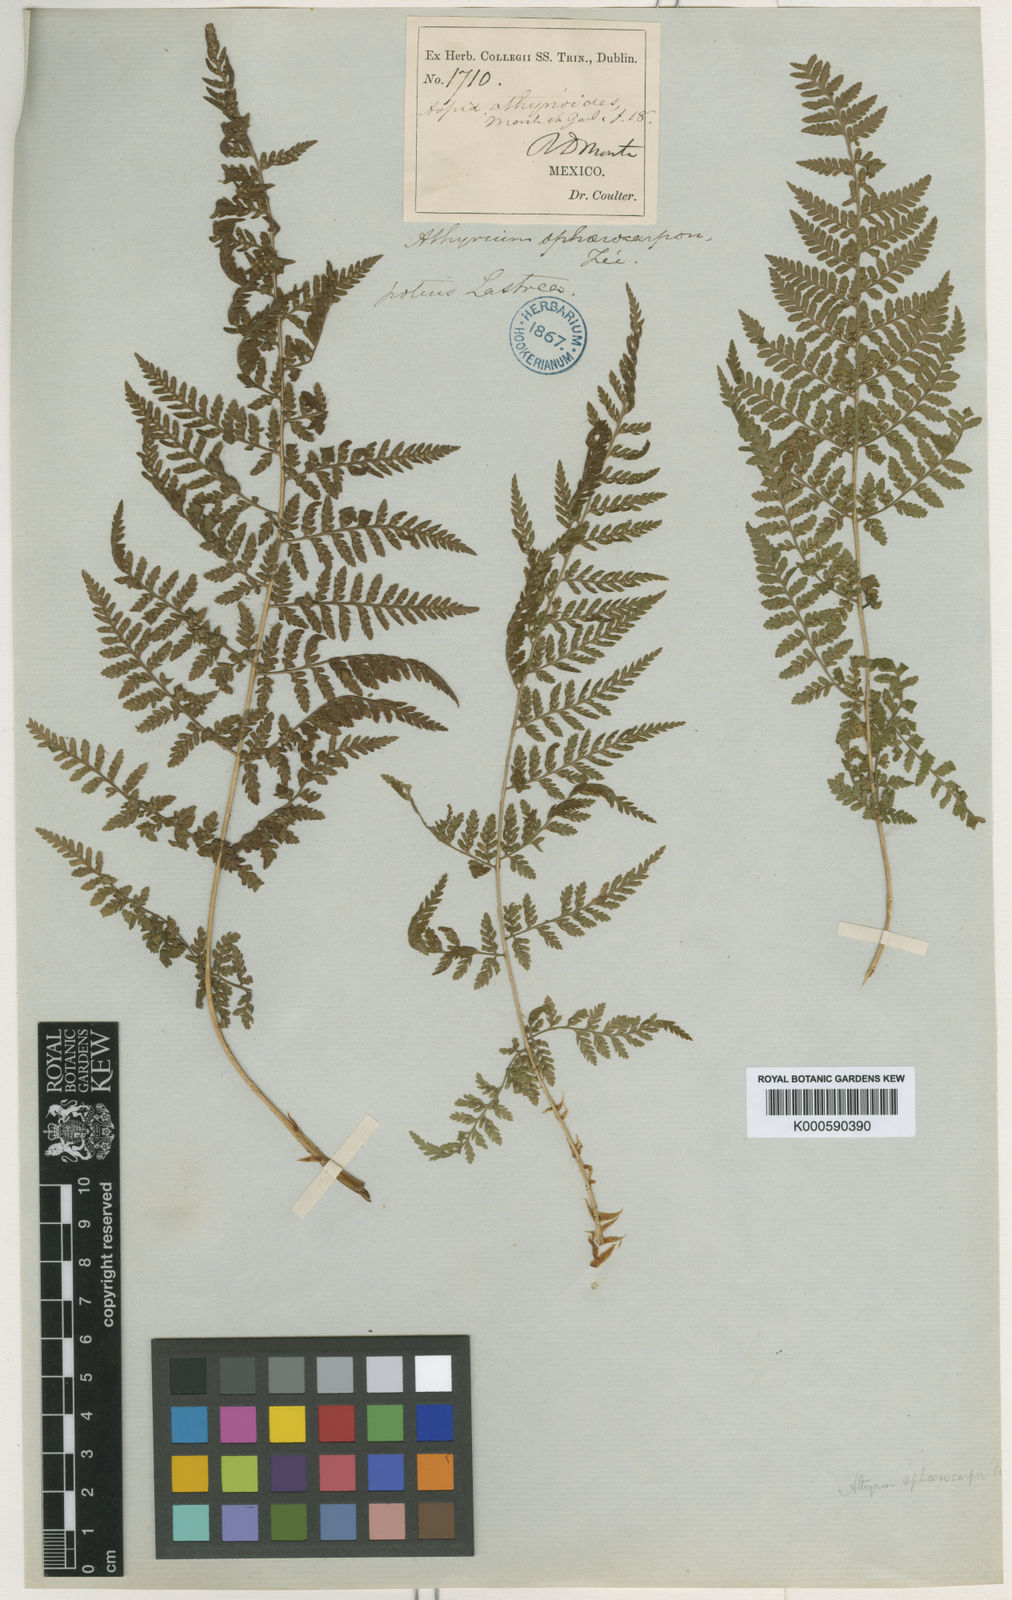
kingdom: Plantae
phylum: Tracheophyta
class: Polypodiopsida
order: Polypodiales
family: Dryopteridaceae
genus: Dryopteris
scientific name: Dryopteris cinnamomea
